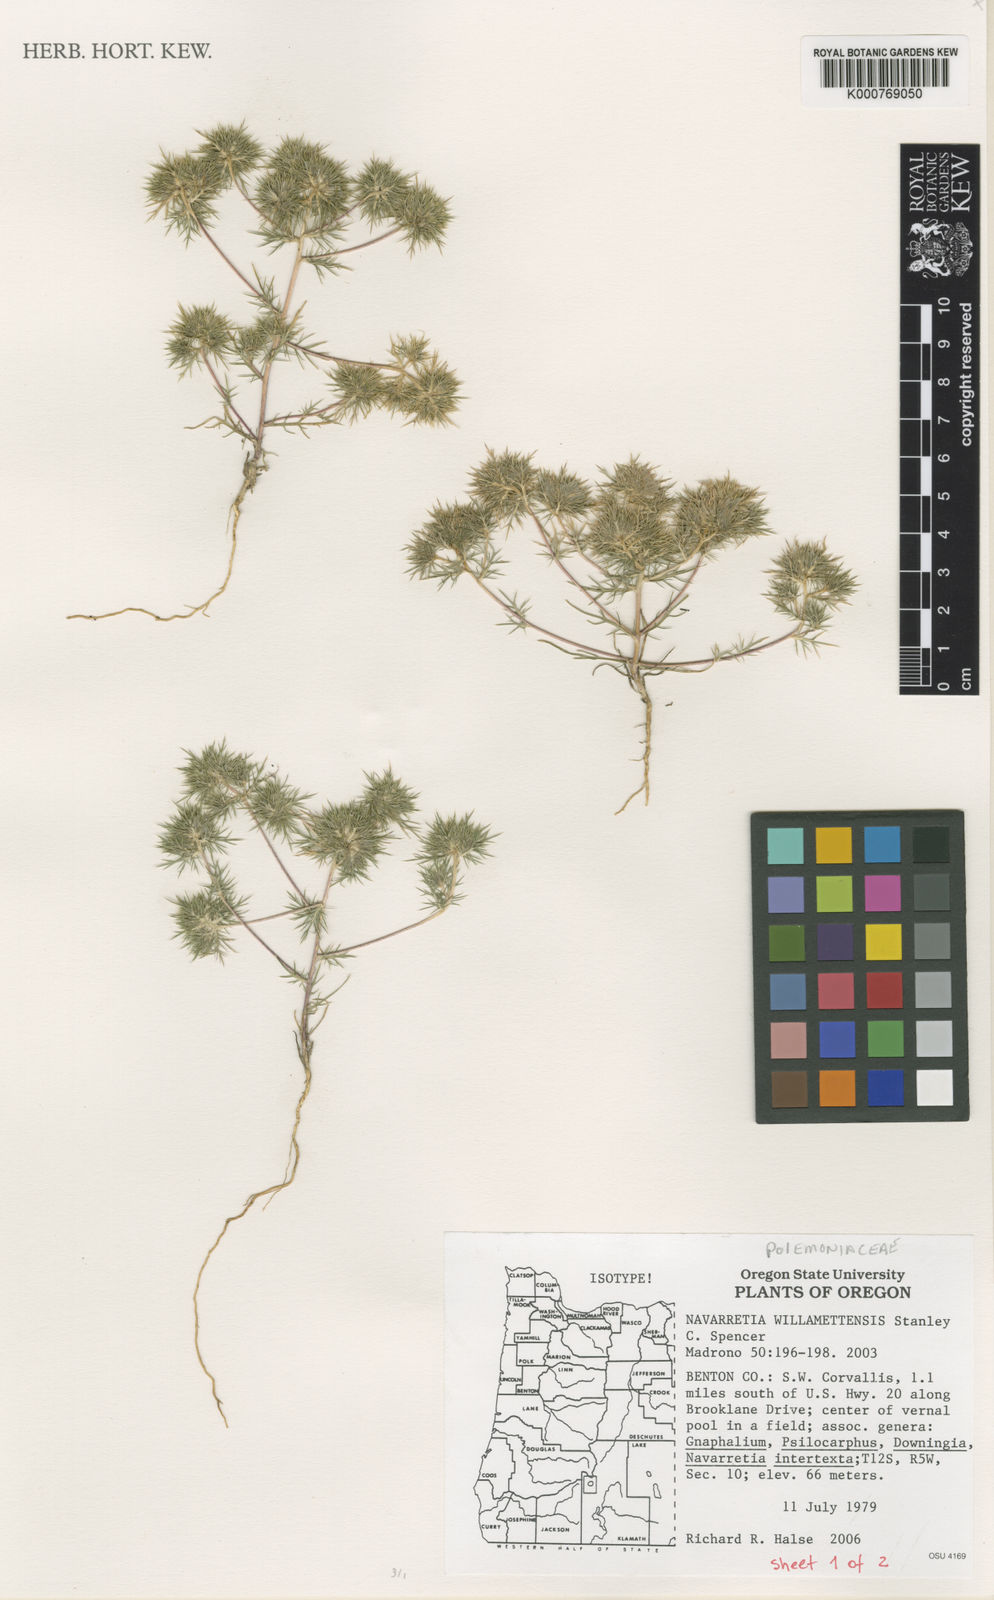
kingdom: Plantae
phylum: Tracheophyta
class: Magnoliopsida
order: Ericales
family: Polemoniaceae
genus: Navarretia
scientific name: Navarretia willamettensis
